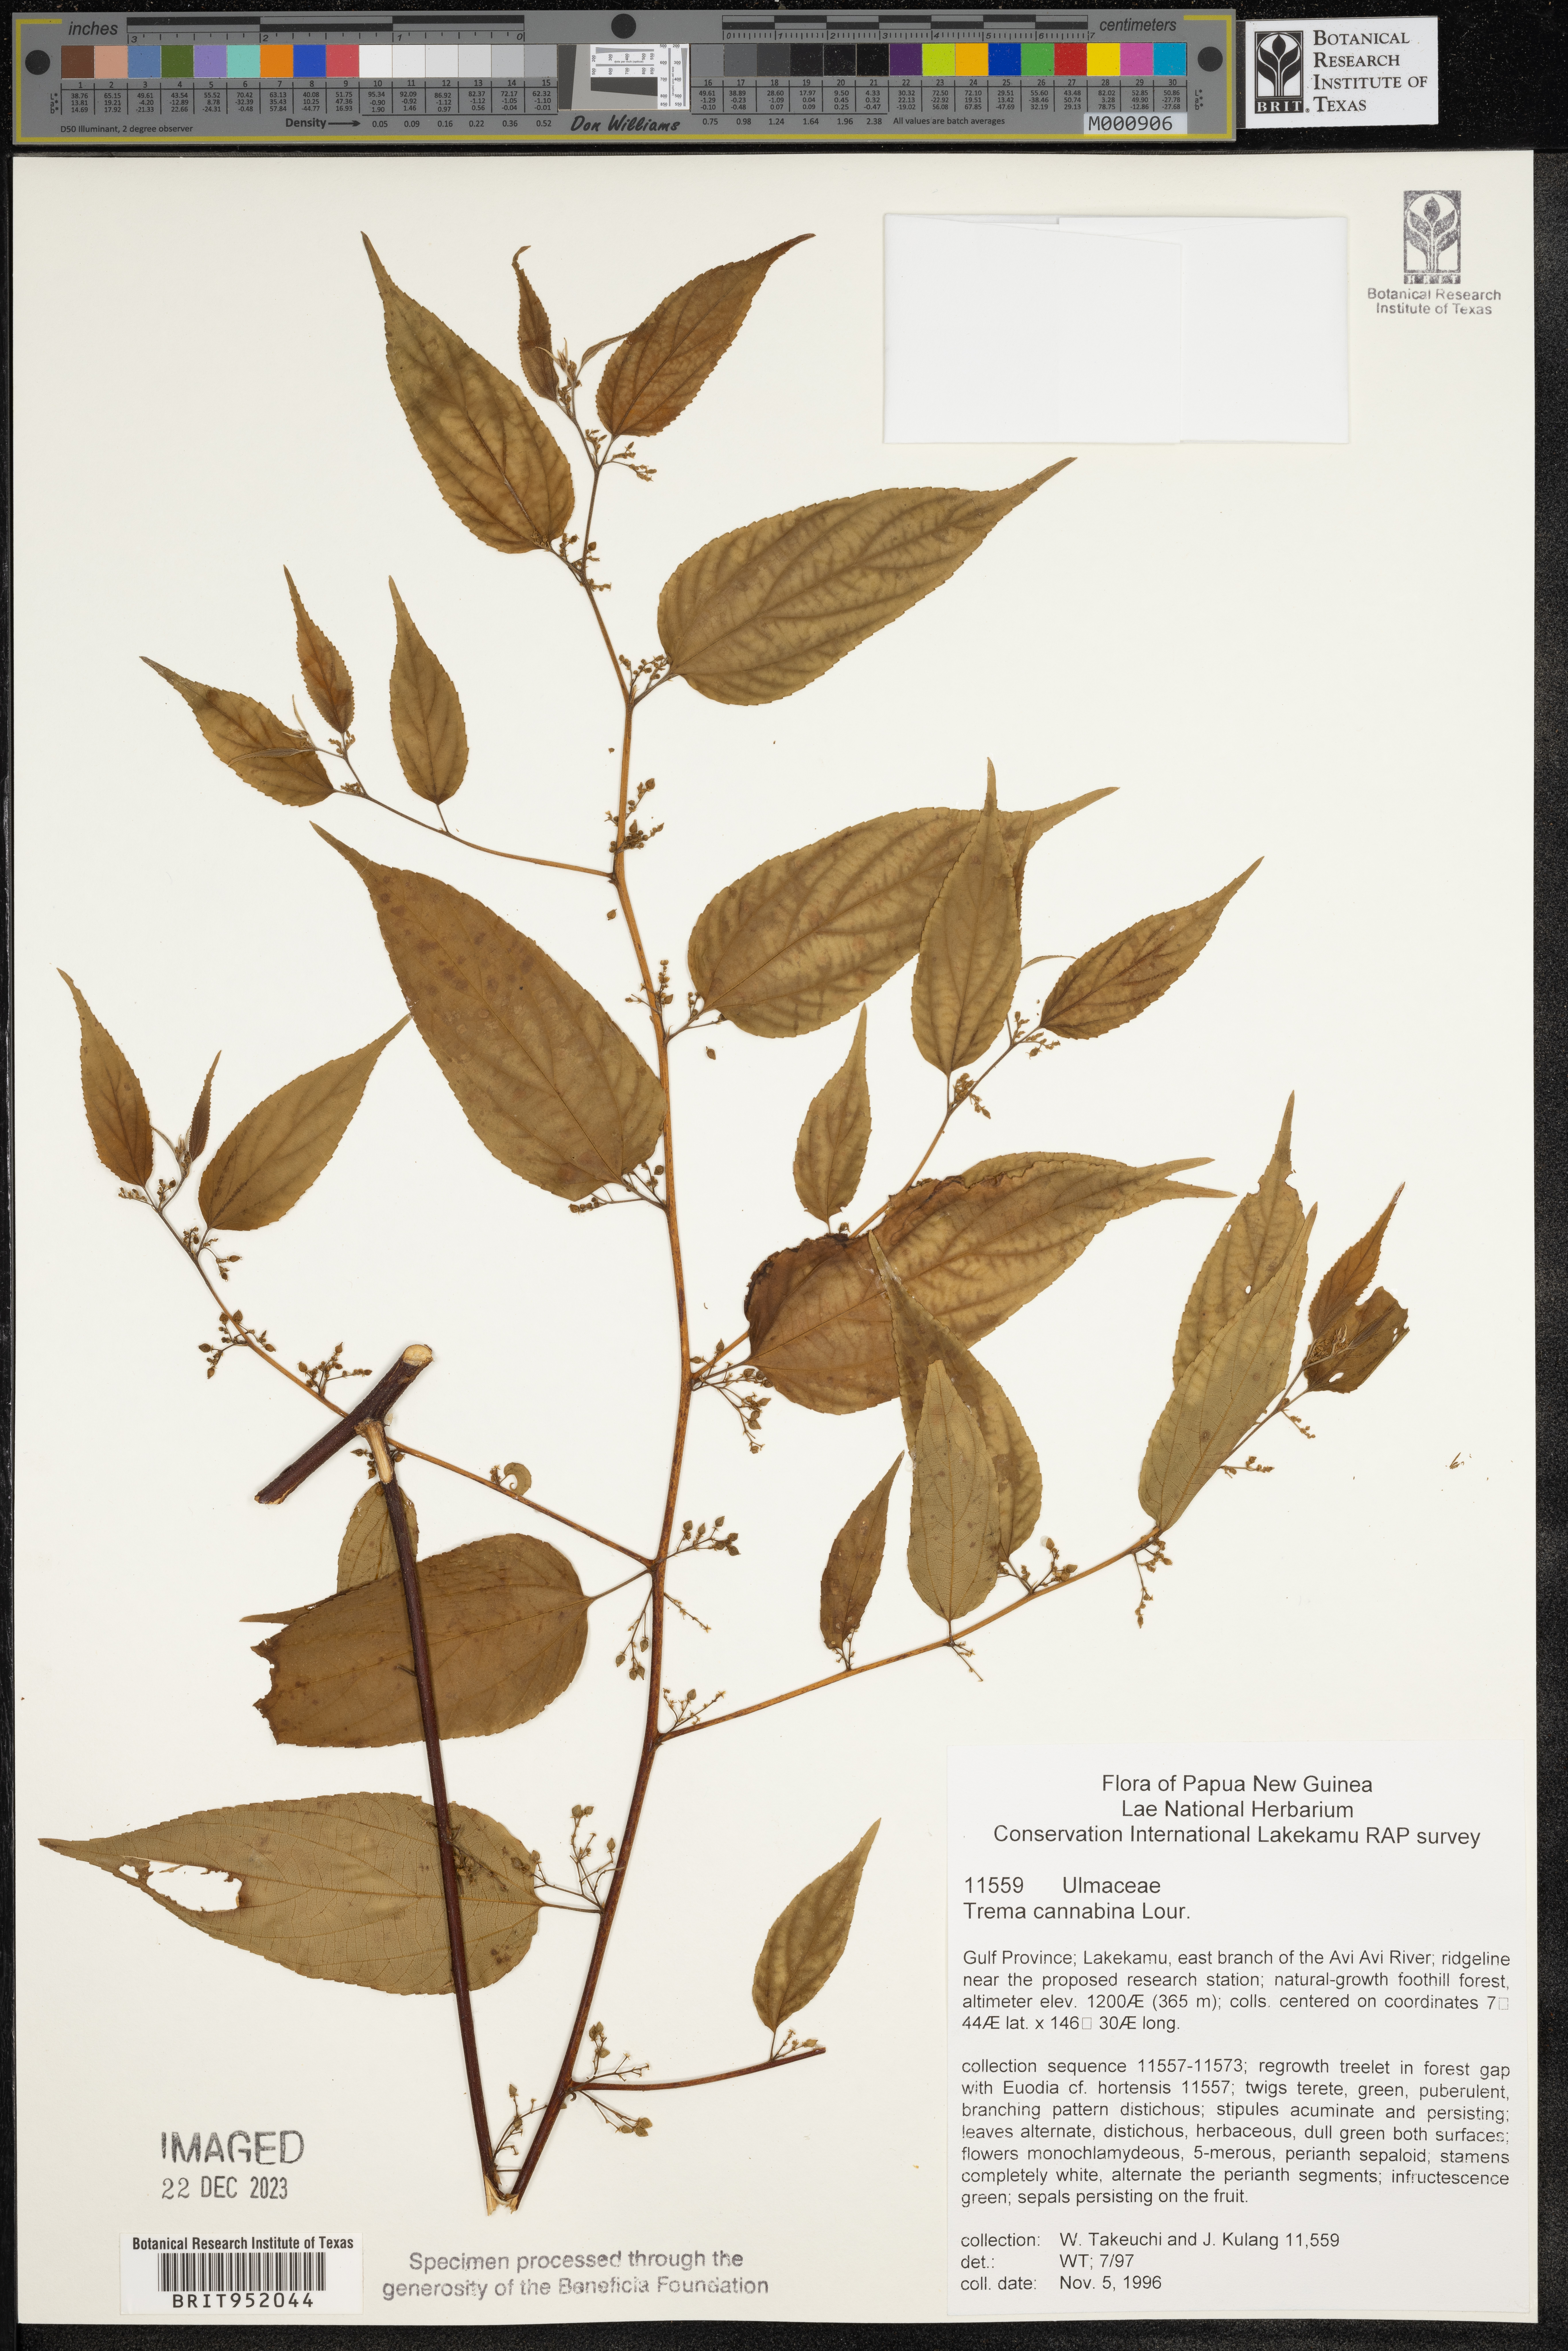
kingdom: Plantae
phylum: Tracheophyta
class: Magnoliopsida
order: Rosales
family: Cannabaceae
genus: Trema
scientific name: Trema cannabina
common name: Poison-peach
